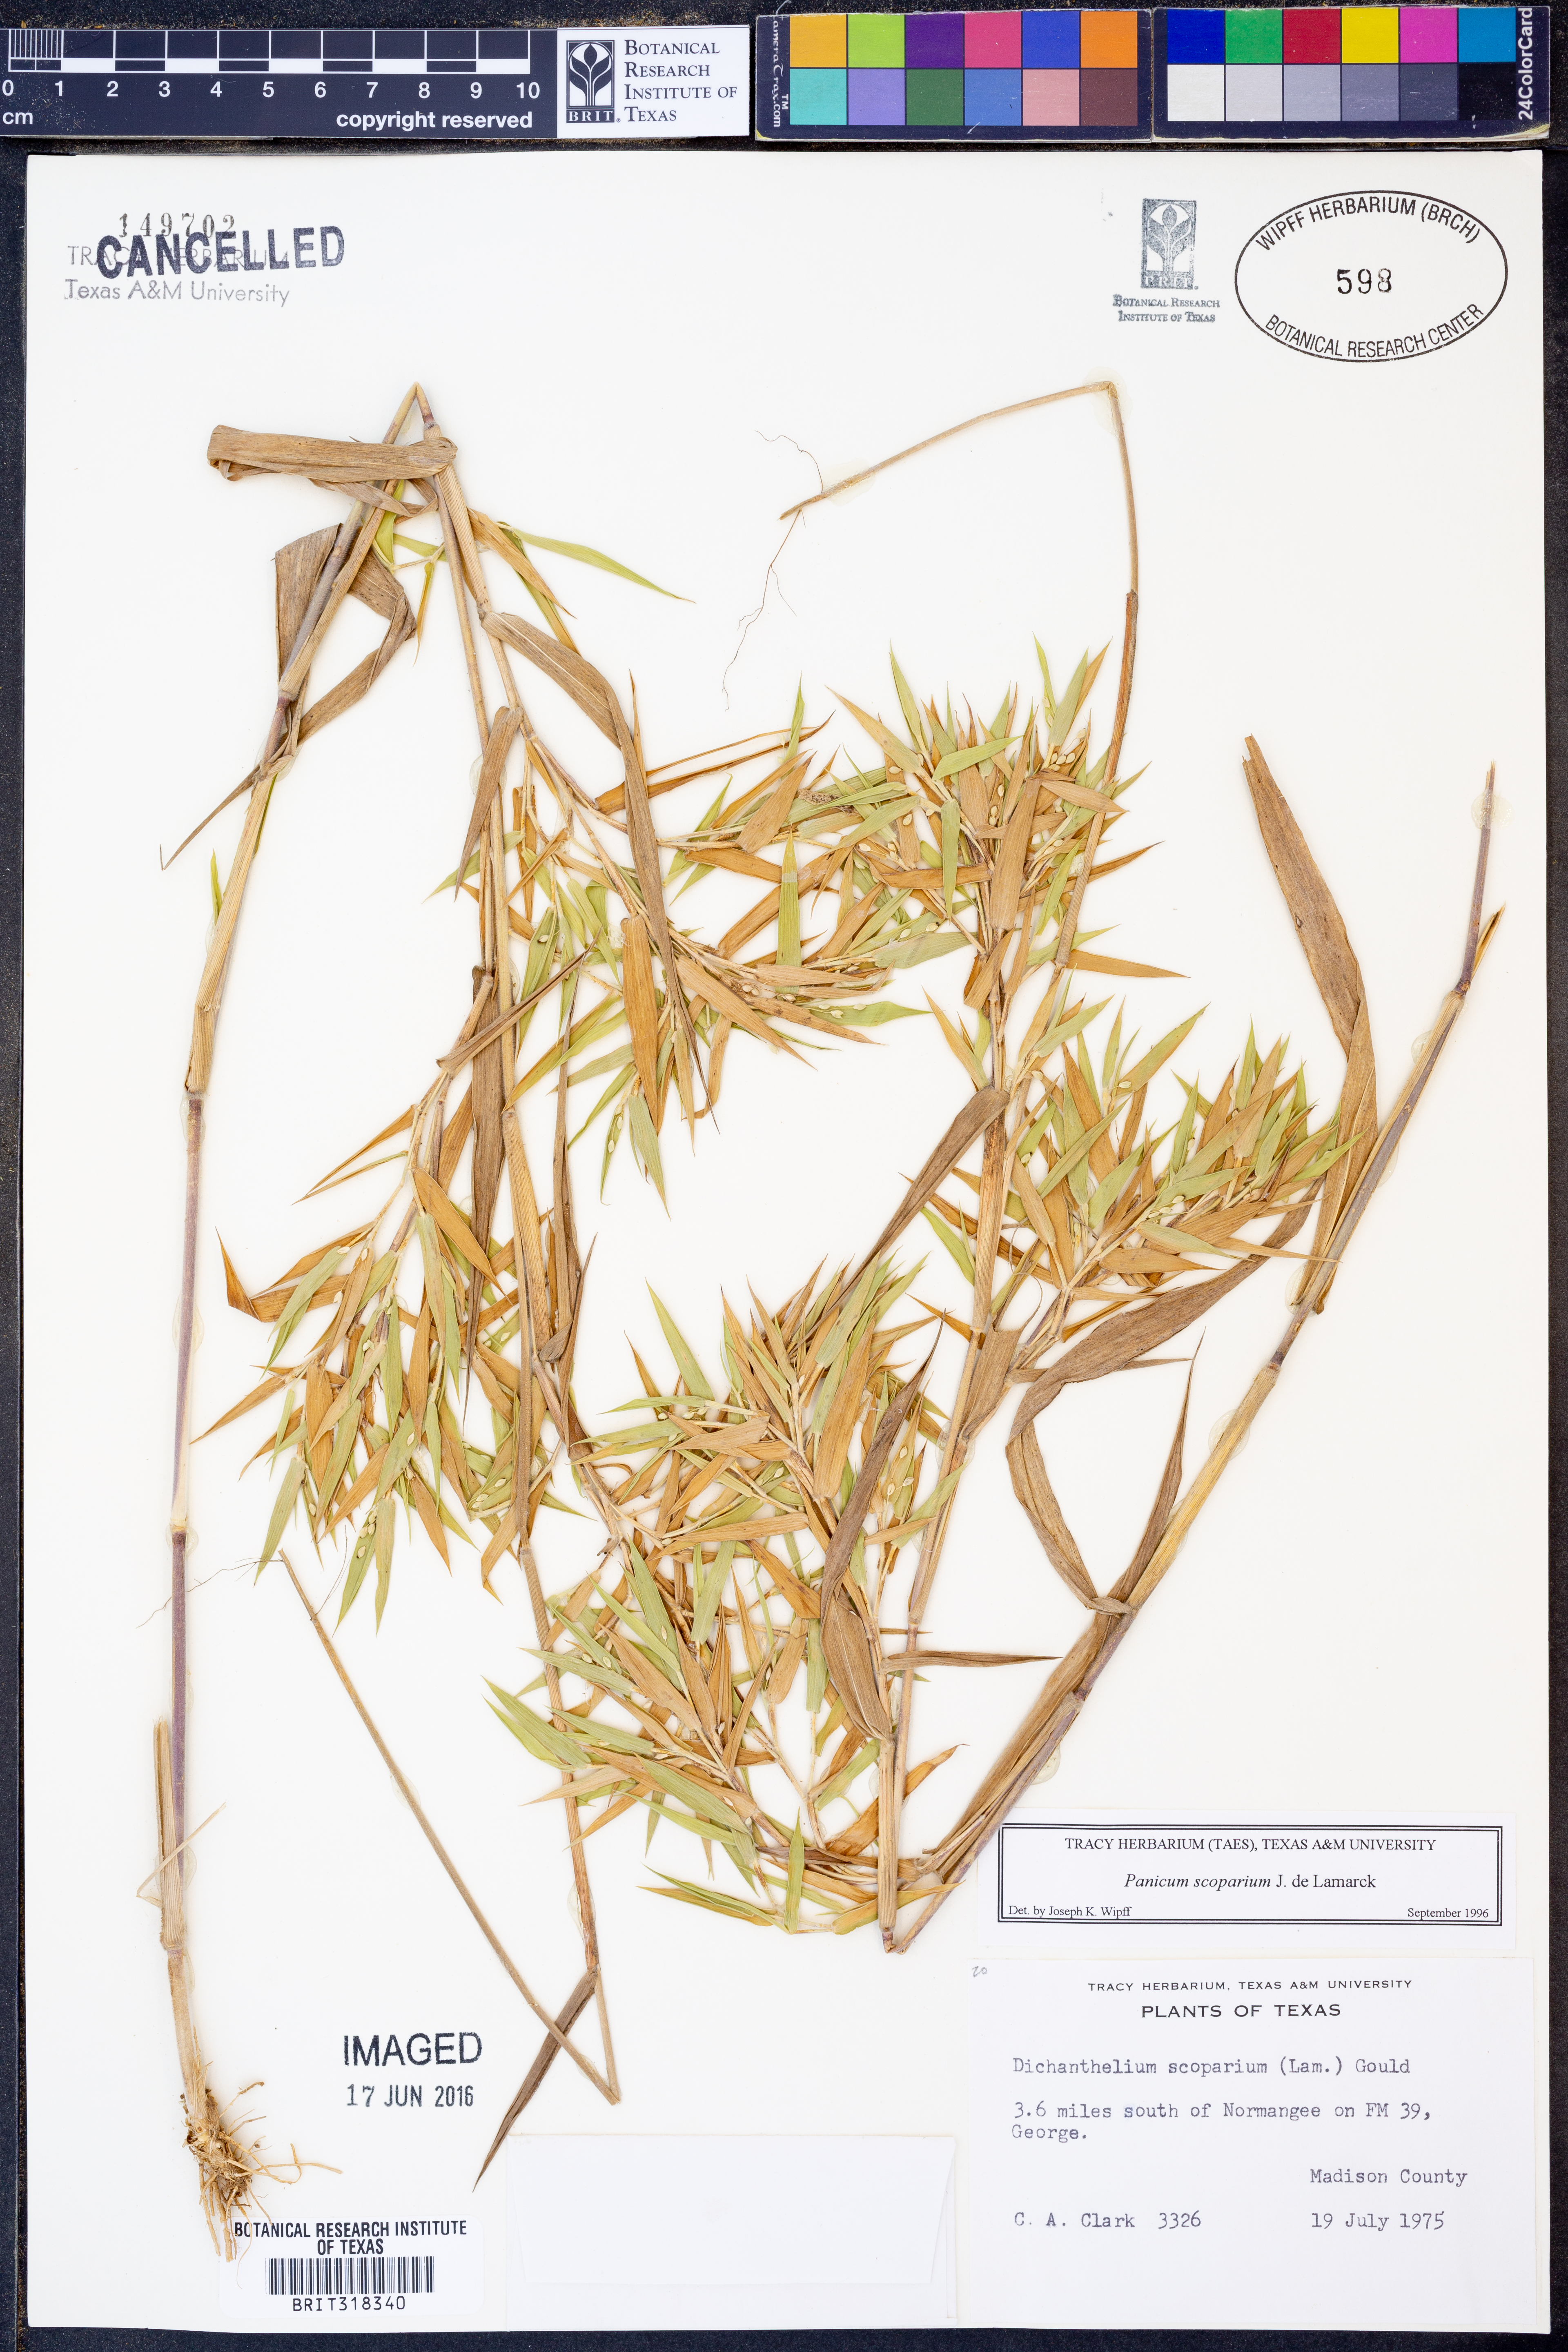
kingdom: Plantae
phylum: Tracheophyta
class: Liliopsida
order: Poales
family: Poaceae
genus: Dichanthelium
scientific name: Dichanthelium scribnerianum
